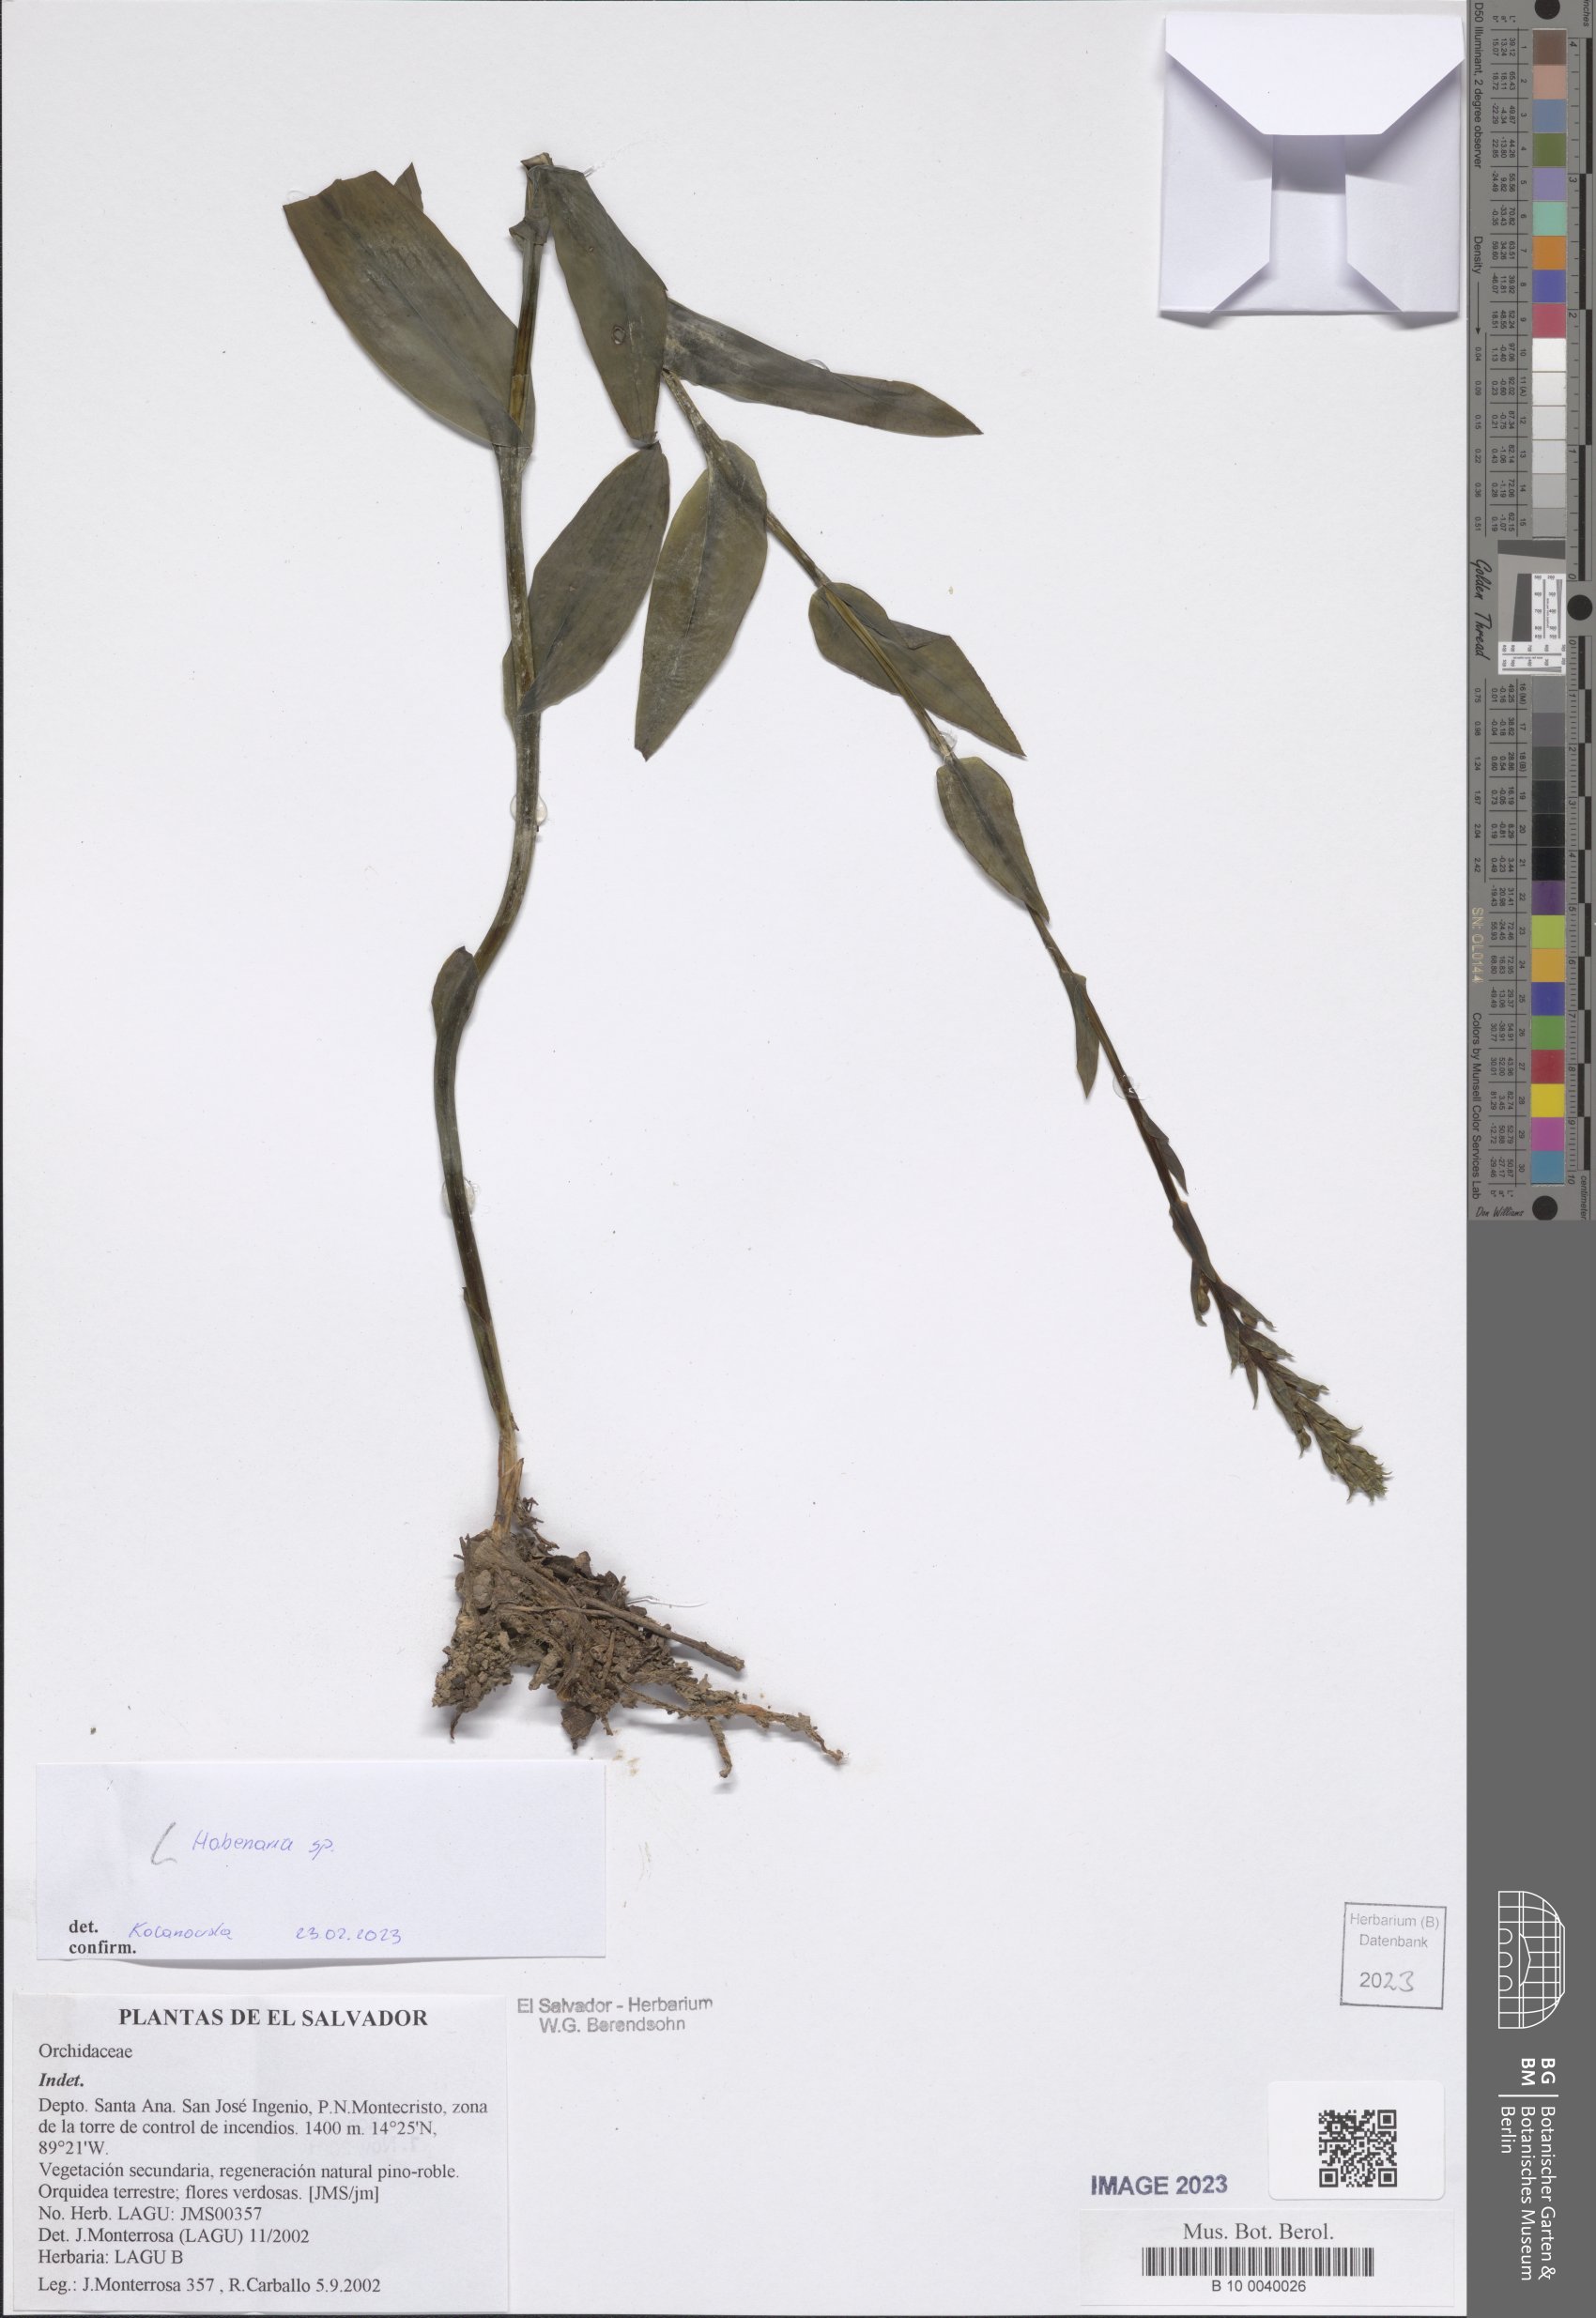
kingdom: Plantae
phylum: Tracheophyta
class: Liliopsida
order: Asparagales
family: Orchidaceae
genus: Habenaria
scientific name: Habenaria
